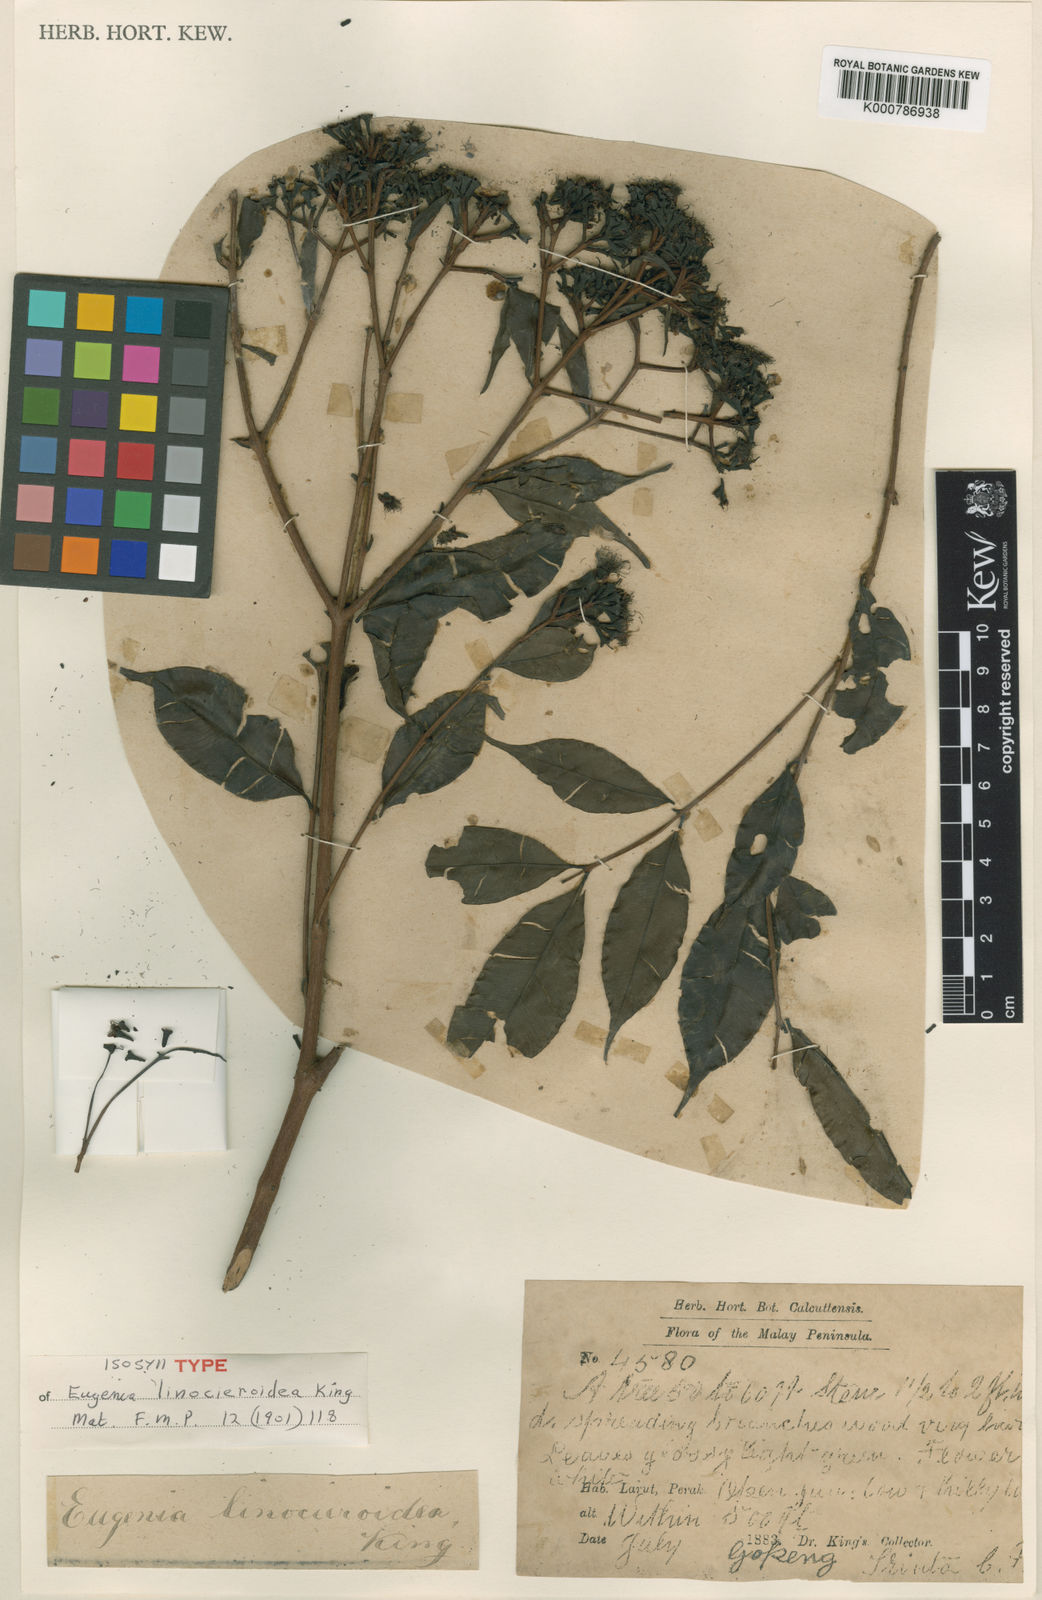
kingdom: Plantae
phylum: Tracheophyta
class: Magnoliopsida
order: Myrtales
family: Myrtaceae
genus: Syzygium
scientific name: Syzygium linocieroideum
